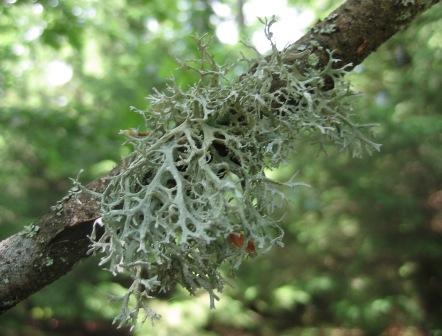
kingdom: Fungi
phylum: Ascomycota
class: Lecanoromycetes
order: Lecanorales
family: Parmeliaceae
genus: Evernia
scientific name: Evernia prunastri
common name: almindelig slåenlav
